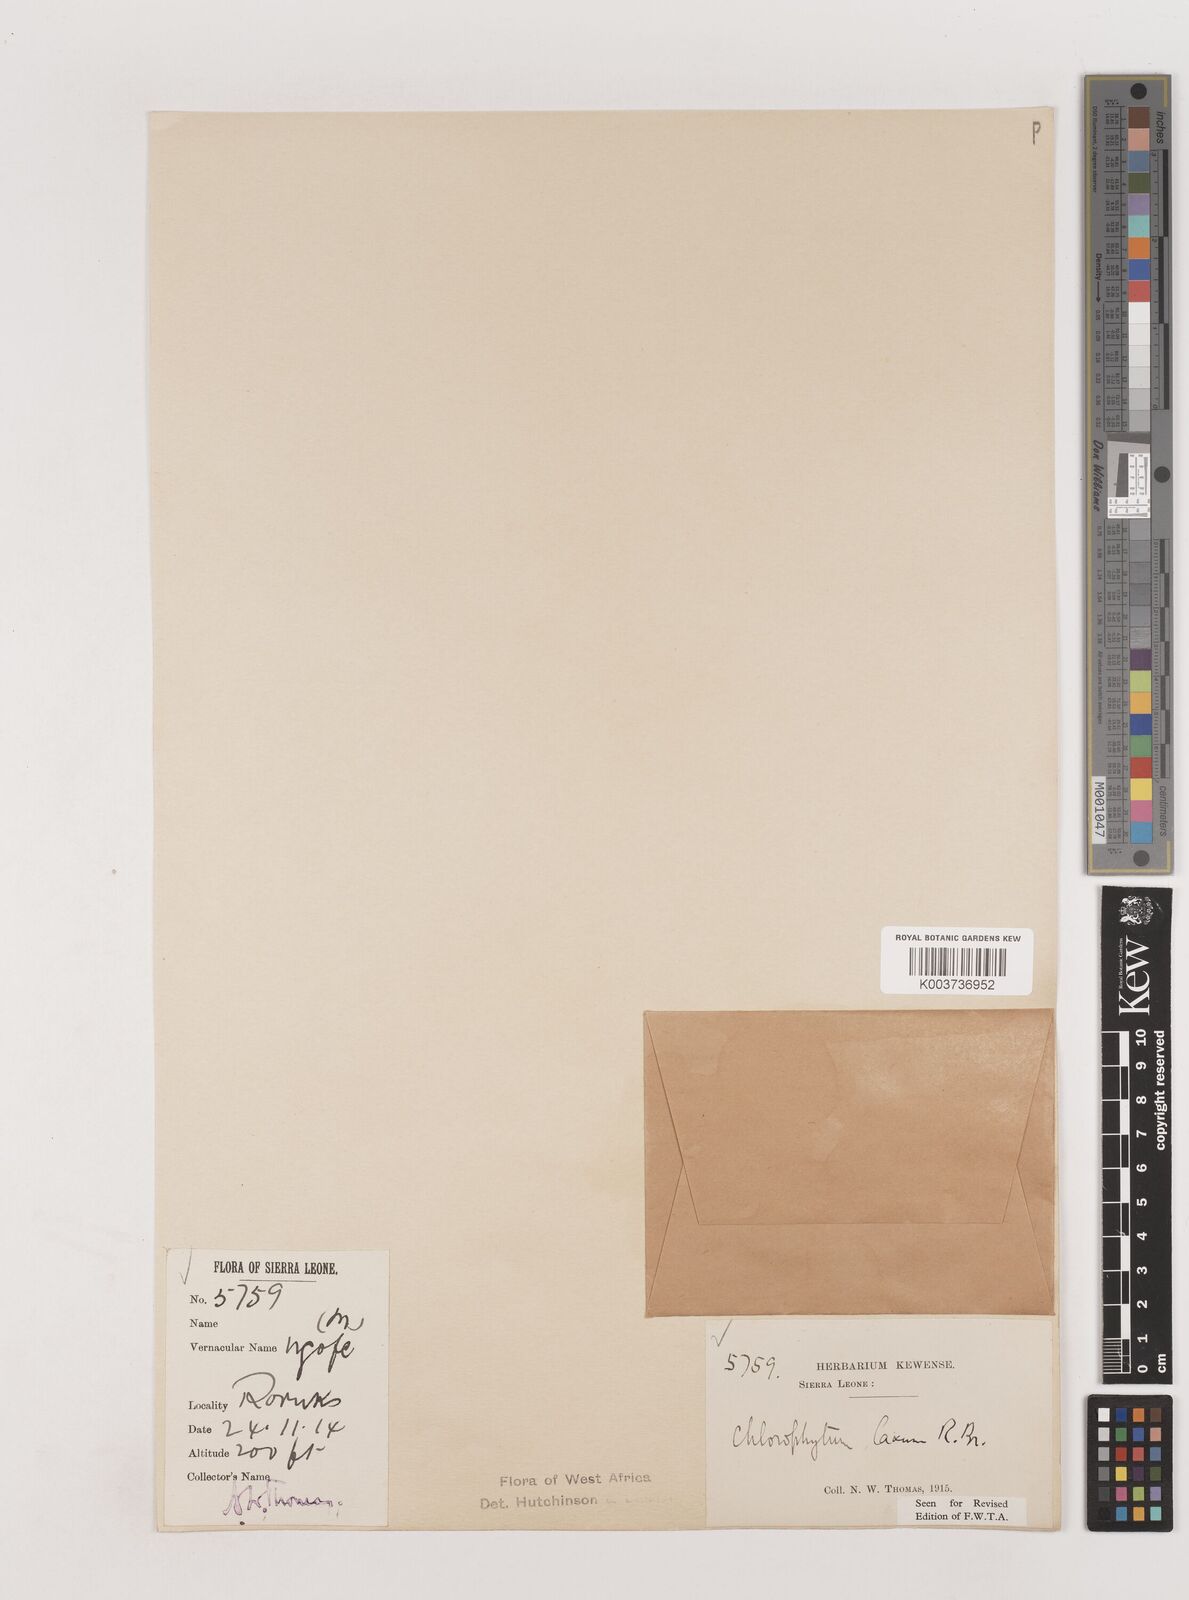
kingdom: Plantae
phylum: Tracheophyta
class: Liliopsida
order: Asparagales
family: Asparagaceae
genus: Chlorophytum
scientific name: Chlorophytum laxum
